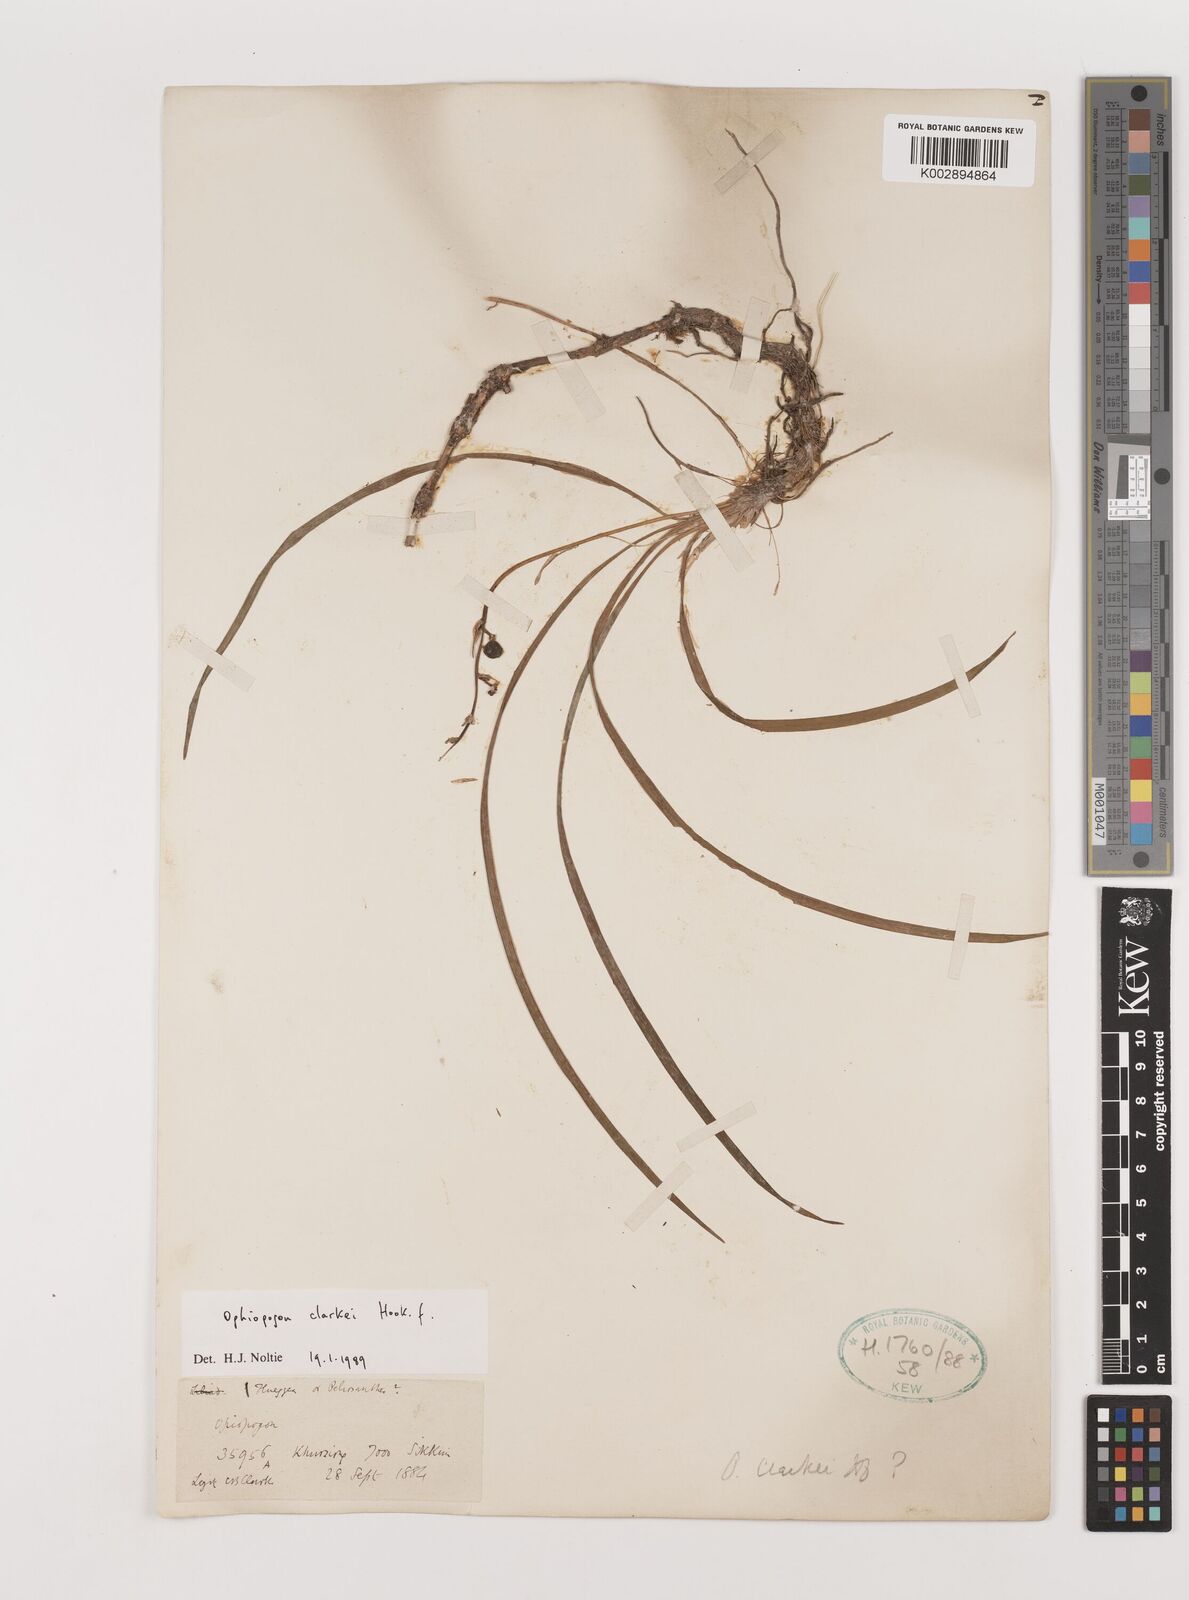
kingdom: Plantae
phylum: Tracheophyta
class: Liliopsida
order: Asparagales
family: Asparagaceae
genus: Ophiopogon
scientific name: Ophiopogon clarkei
